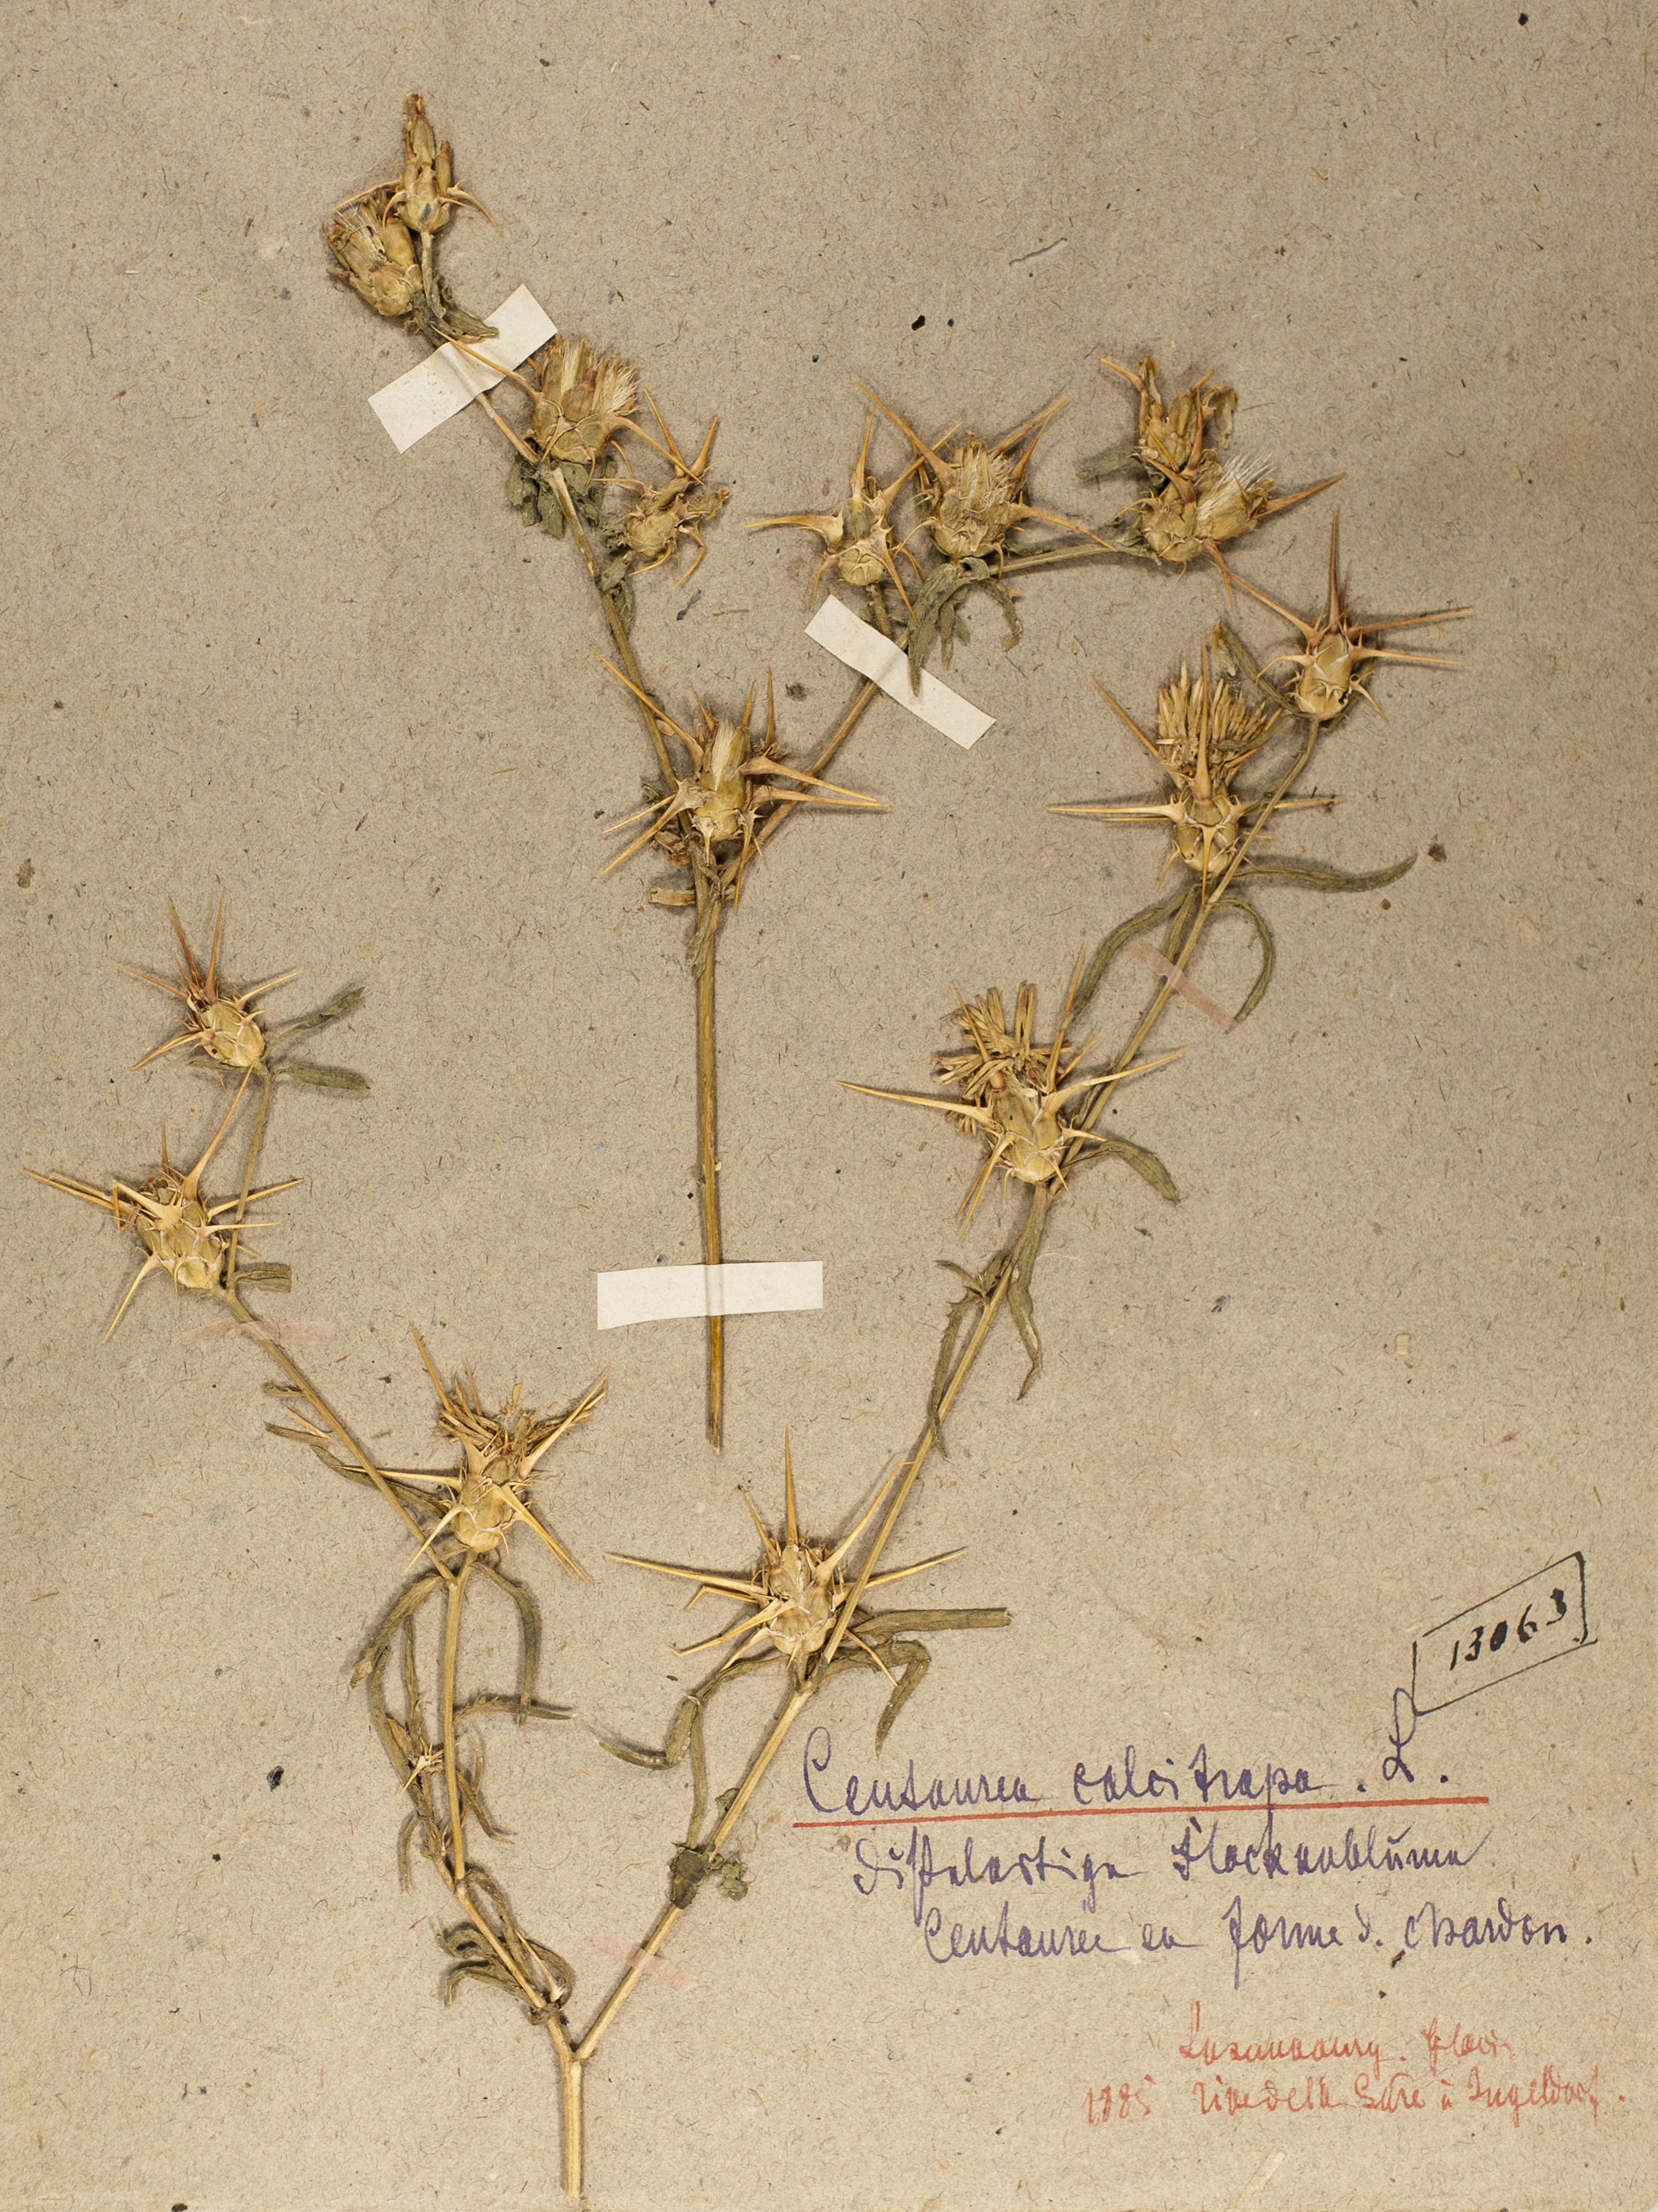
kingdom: Plantae
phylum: Tracheophyta
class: Magnoliopsida
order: Asterales
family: Asteraceae
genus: Centaurea
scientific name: Centaurea calcitrapa
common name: Red star-thistle
